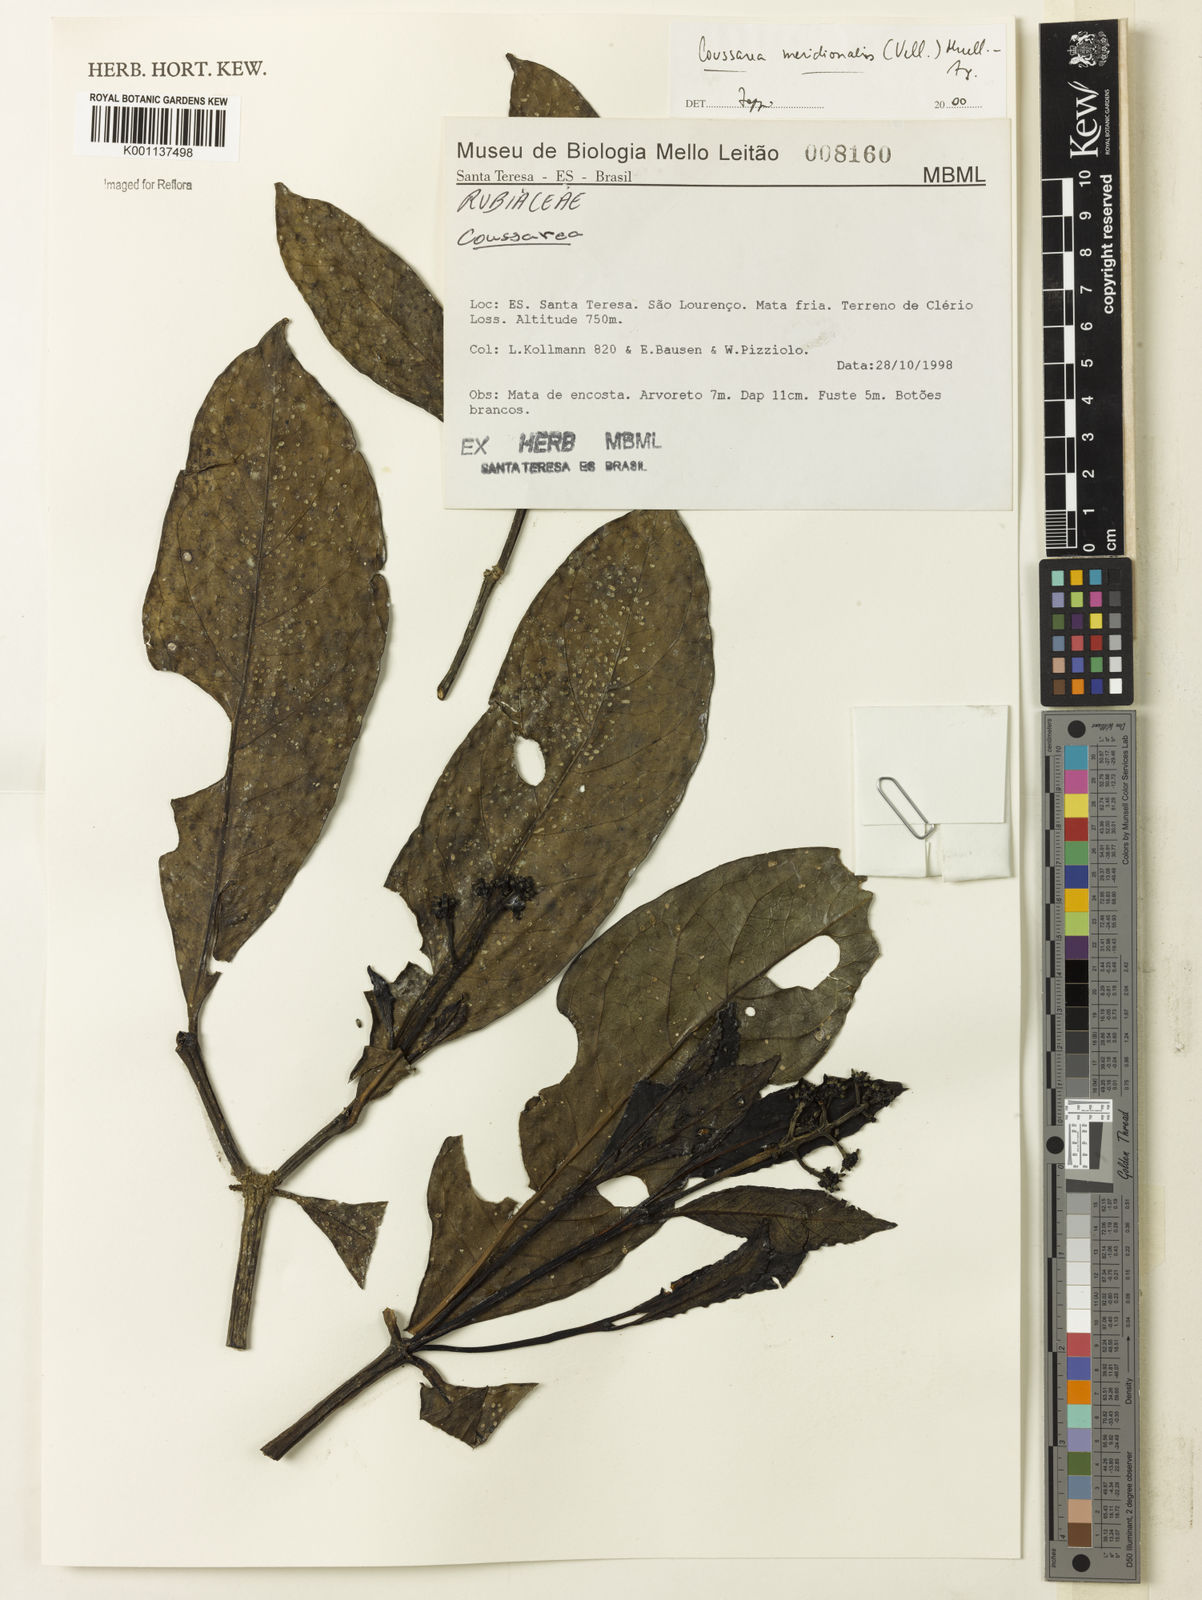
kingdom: Plantae
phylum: Tracheophyta
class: Magnoliopsida
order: Gentianales
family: Rubiaceae
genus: Coussarea
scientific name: Coussarea
